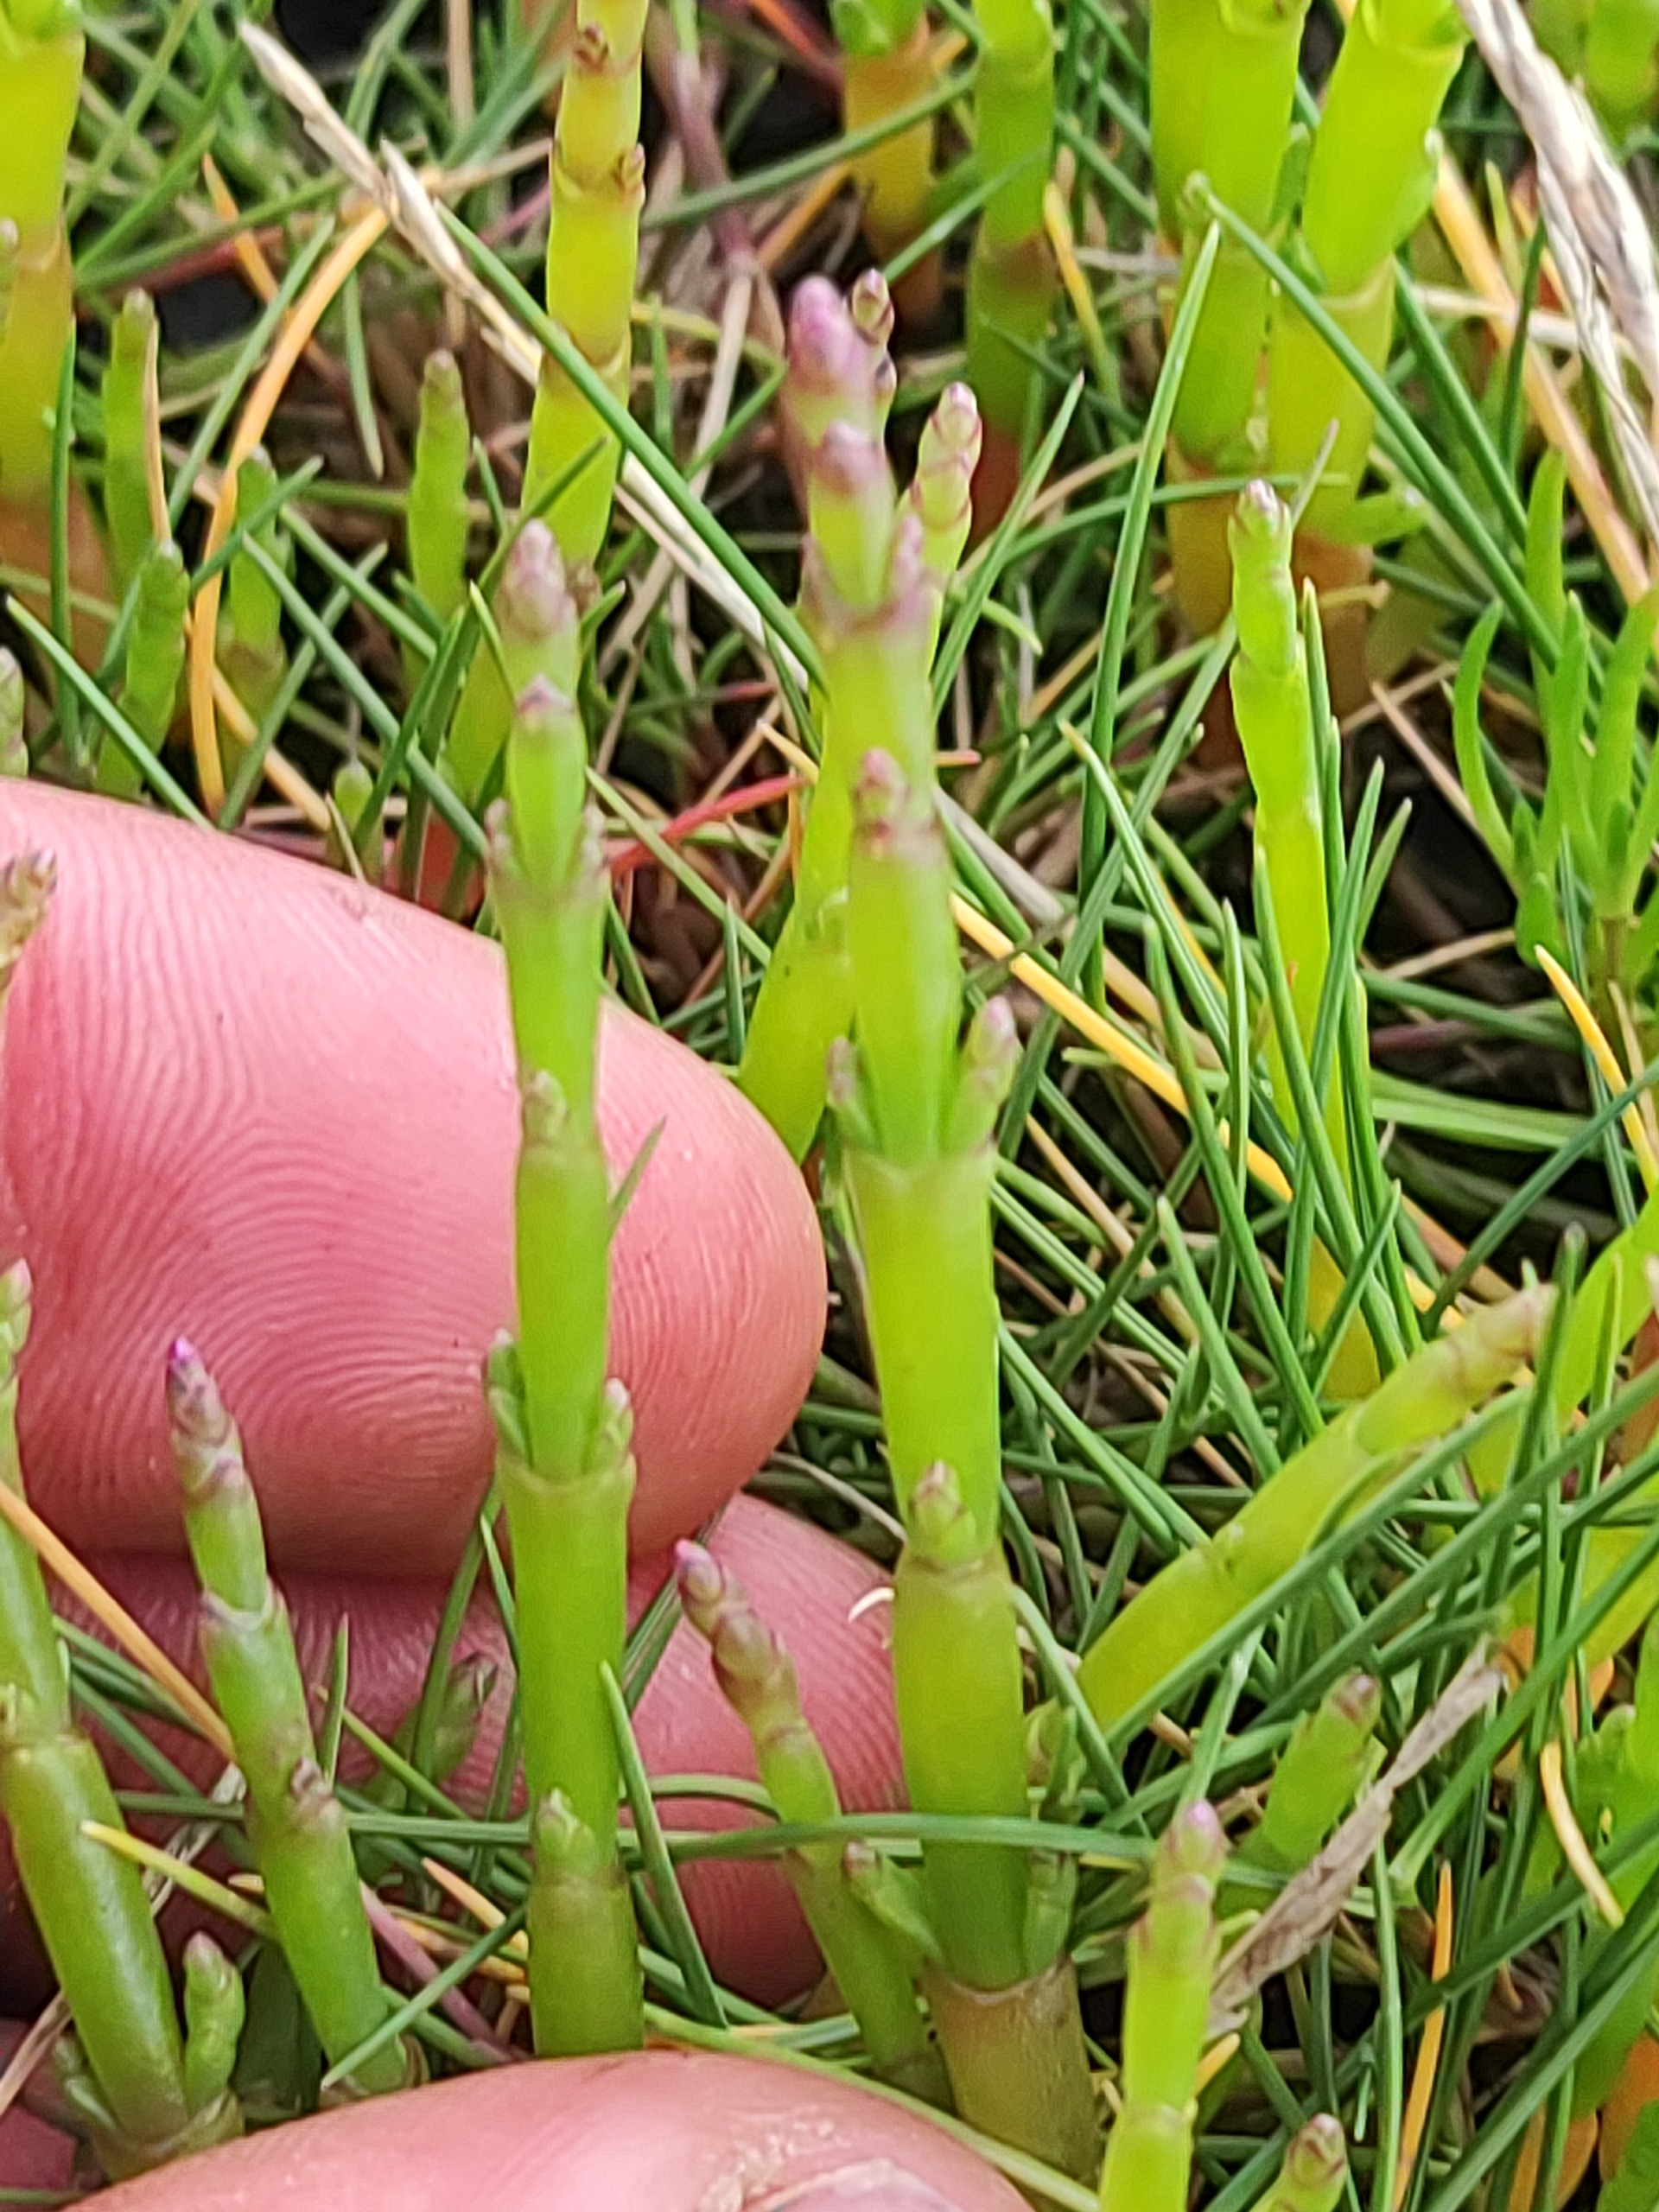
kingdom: Plantae
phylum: Tracheophyta
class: Magnoliopsida
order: Caryophyllales
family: Amaranthaceae
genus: Salicornia
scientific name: Salicornia europaea
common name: Almindelig salturt
